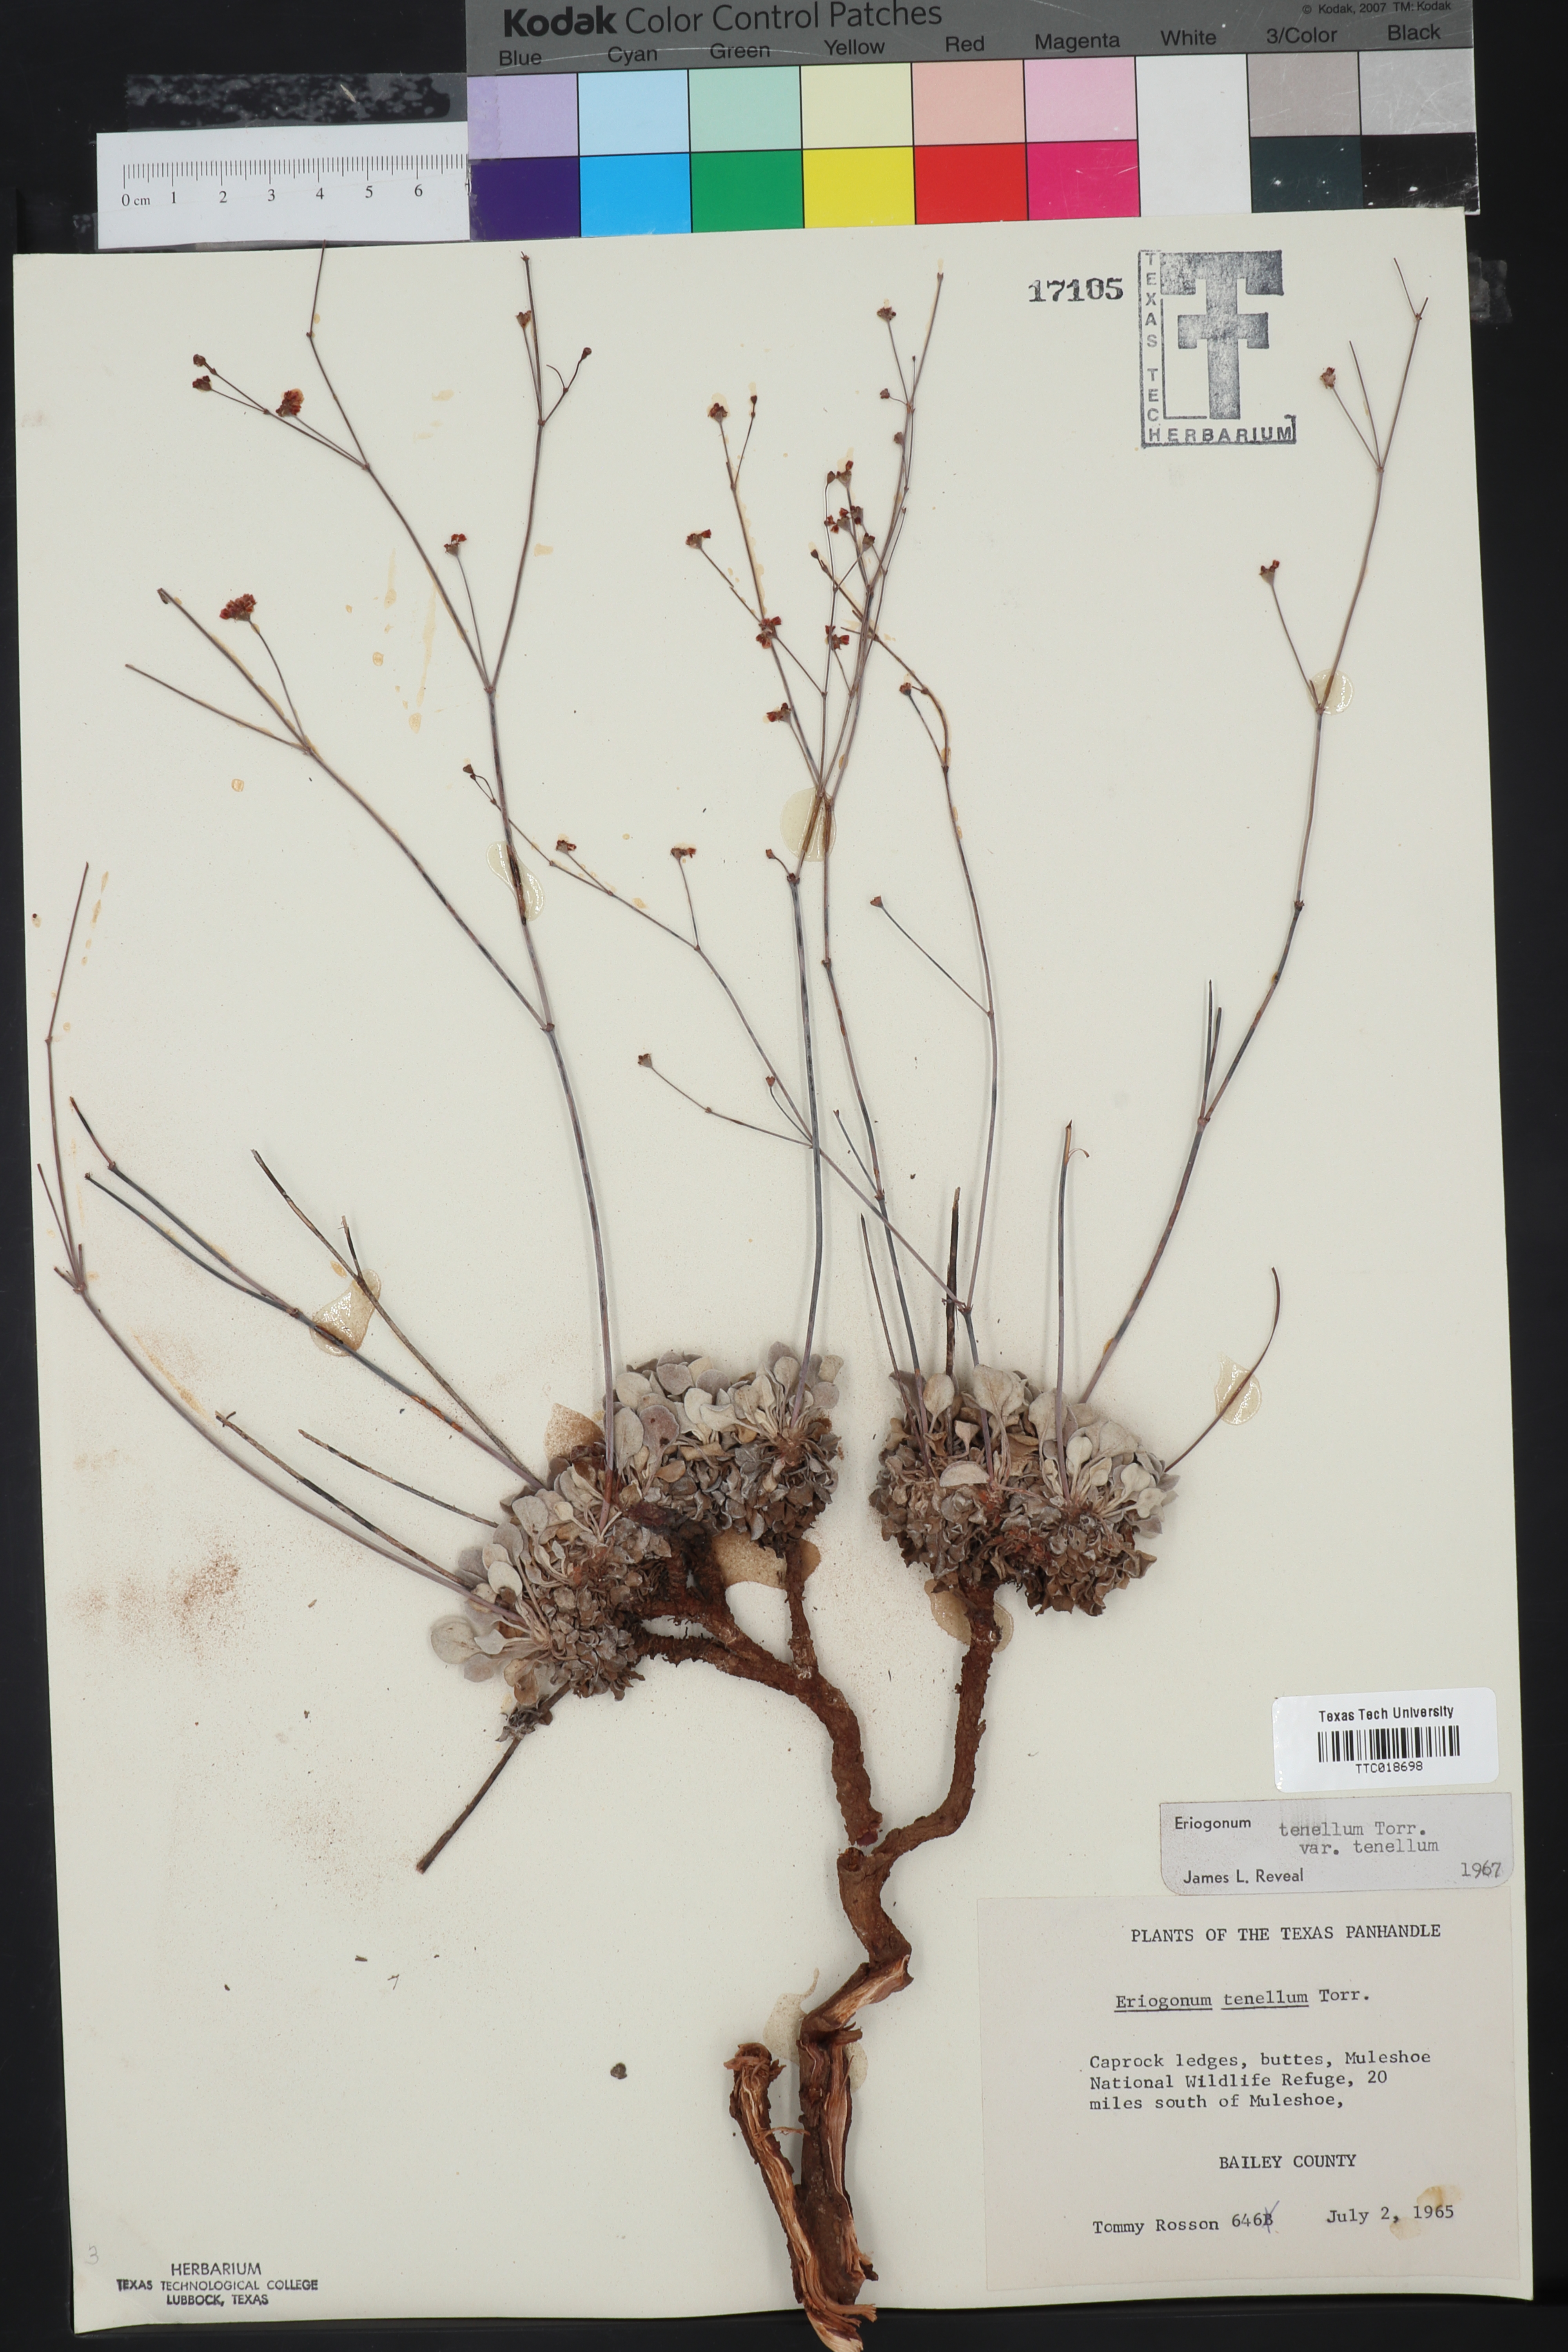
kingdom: Plantae
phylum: Tracheophyta
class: Magnoliopsida
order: Caryophyllales
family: Polygonaceae
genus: Eriogonum
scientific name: Eriogonum tenellum
